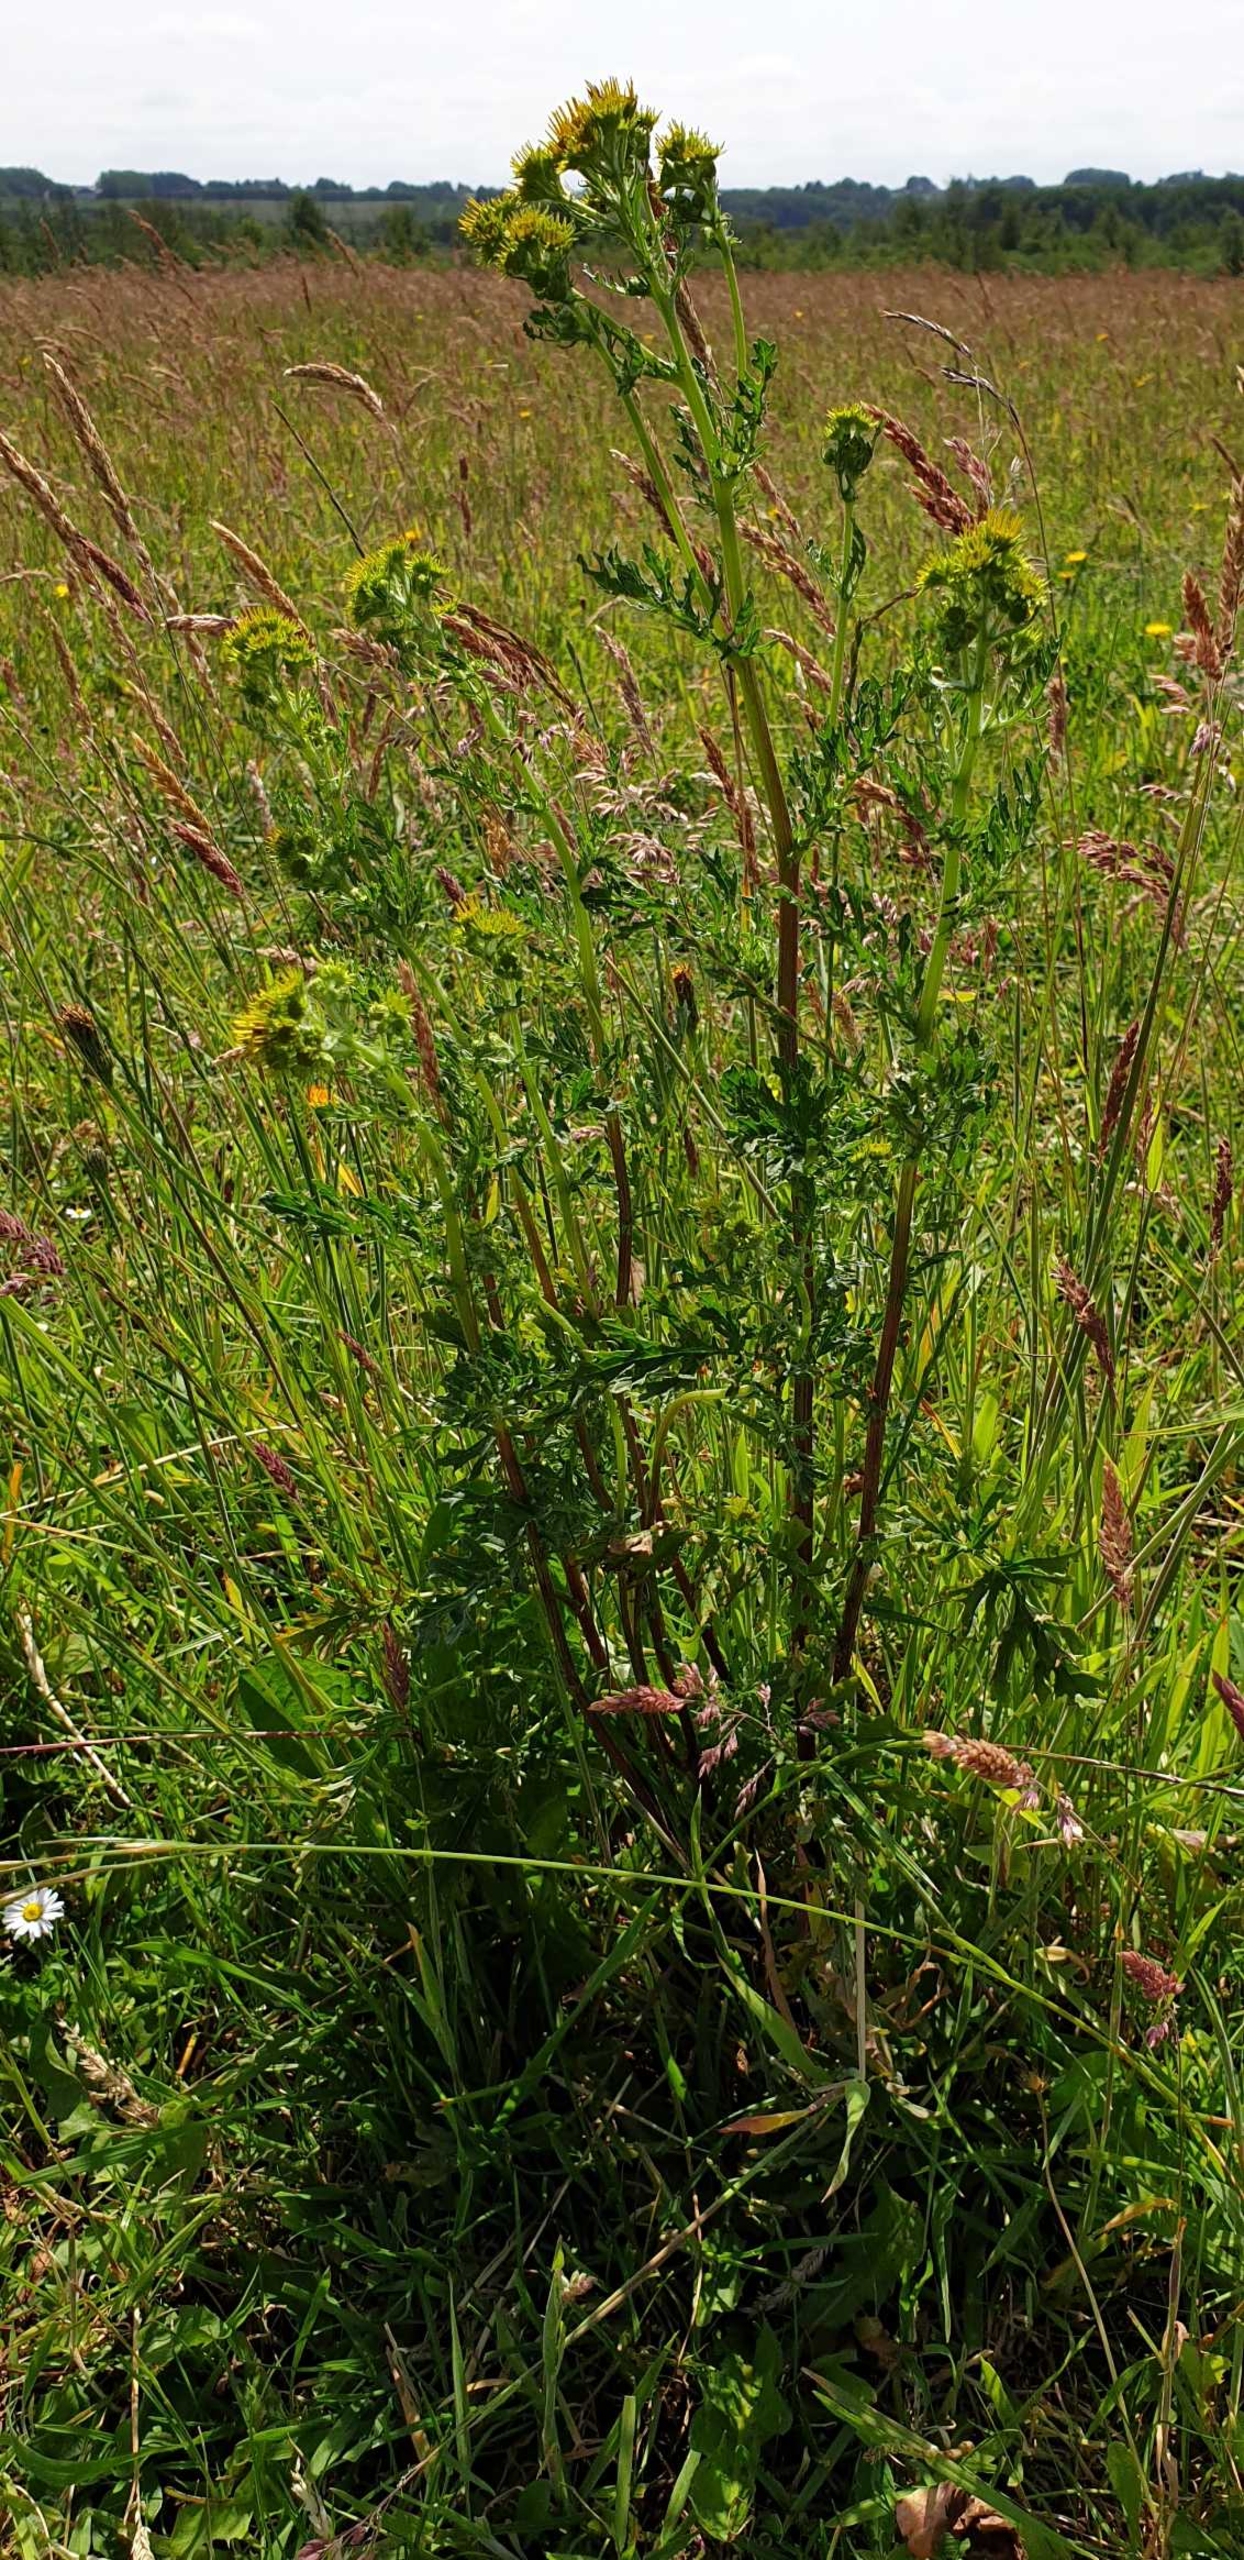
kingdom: Plantae
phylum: Tracheophyta
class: Magnoliopsida
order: Asterales
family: Asteraceae
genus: Jacobaea
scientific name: Jacobaea vulgaris
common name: Eng-brandbæger
